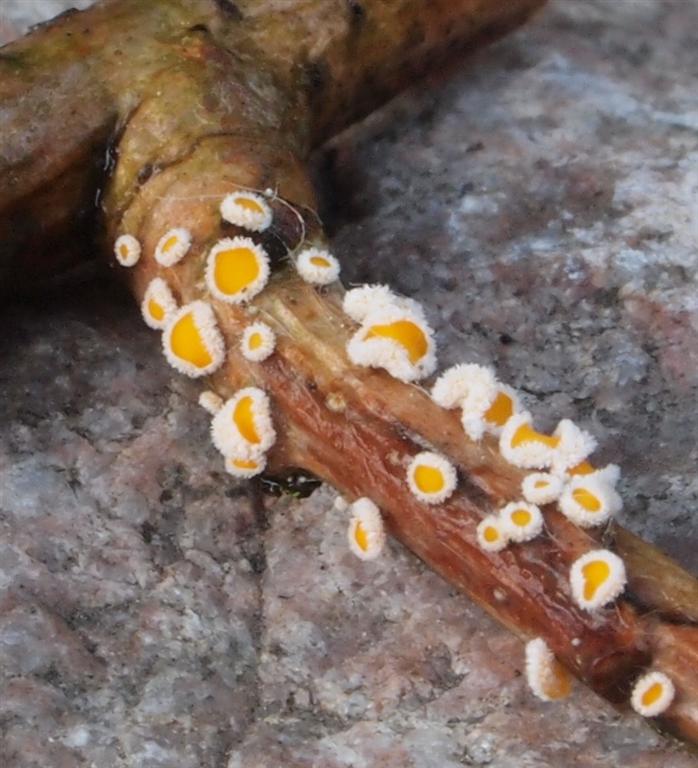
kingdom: Fungi
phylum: Ascomycota
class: Leotiomycetes
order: Helotiales
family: Lachnaceae
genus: Capitotricha
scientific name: Capitotricha bicolor
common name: prægtig frynseskive
